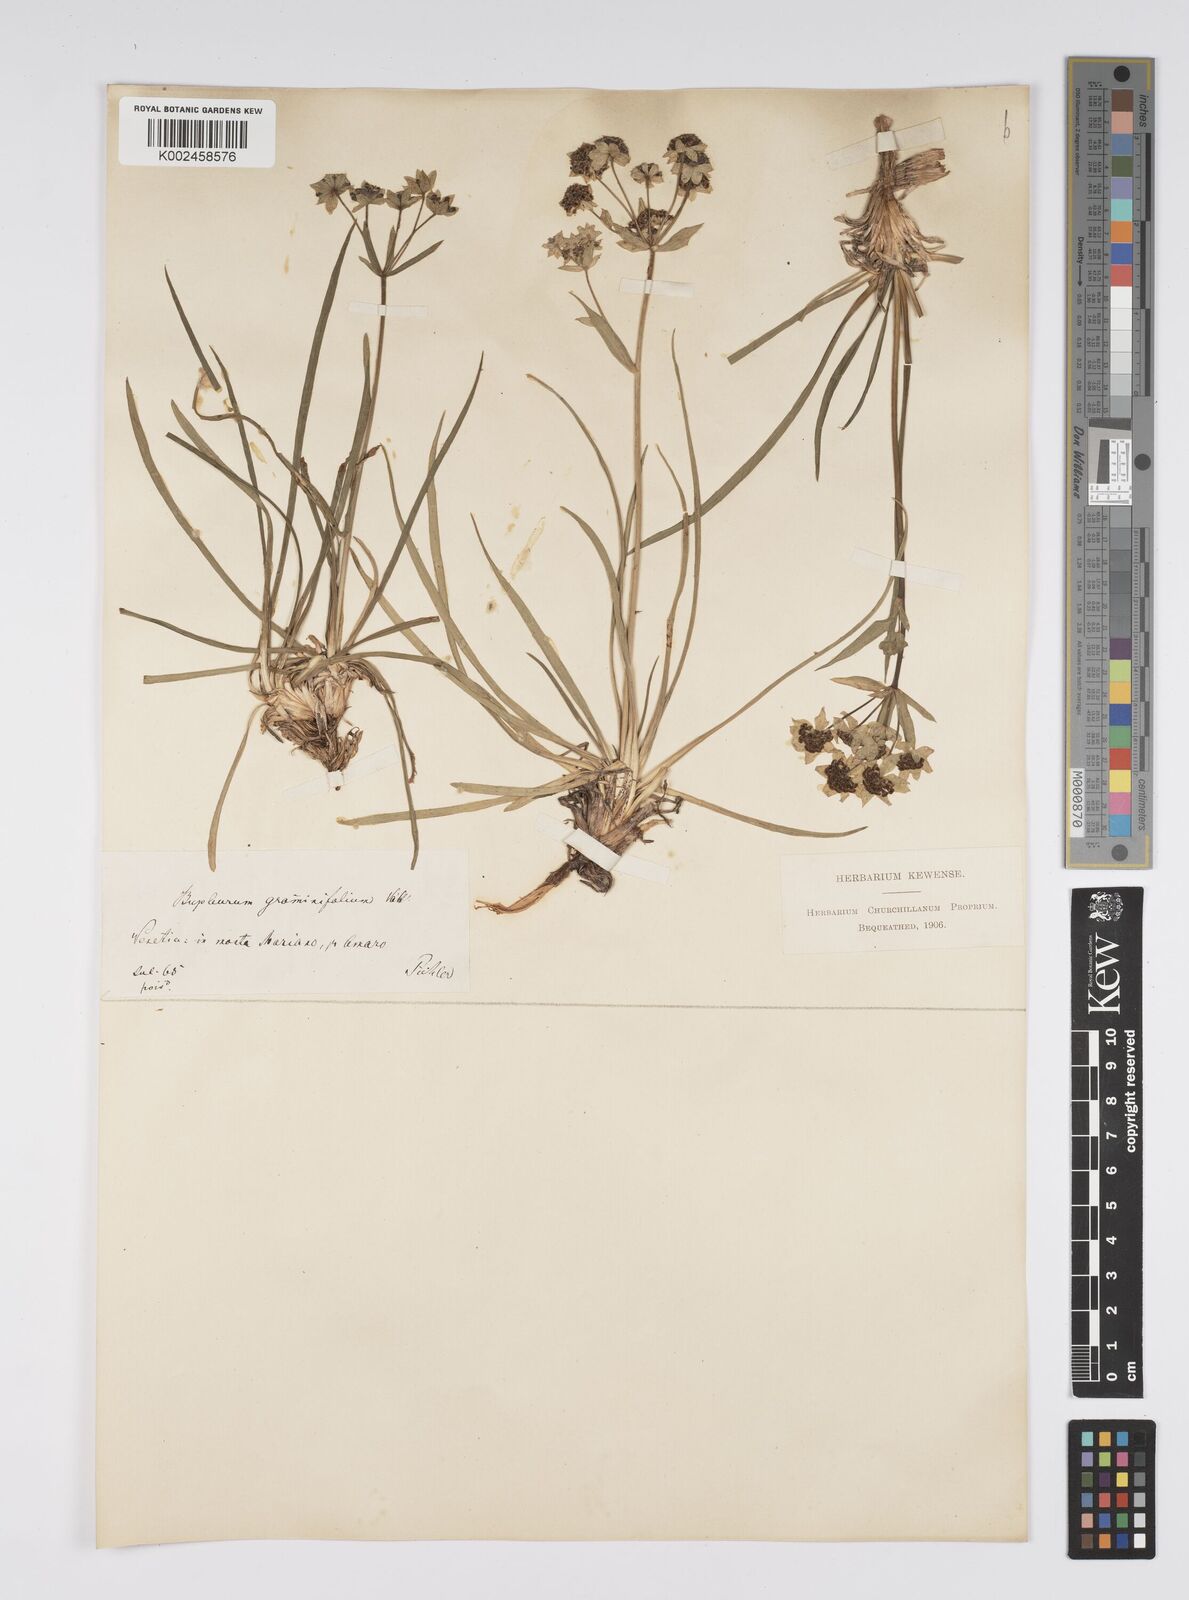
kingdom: Plantae
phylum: Tracheophyta
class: Magnoliopsida
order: Apiales
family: Apiaceae
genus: Bupleurum
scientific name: Bupleurum petraeum
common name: Rock hare's-ear
